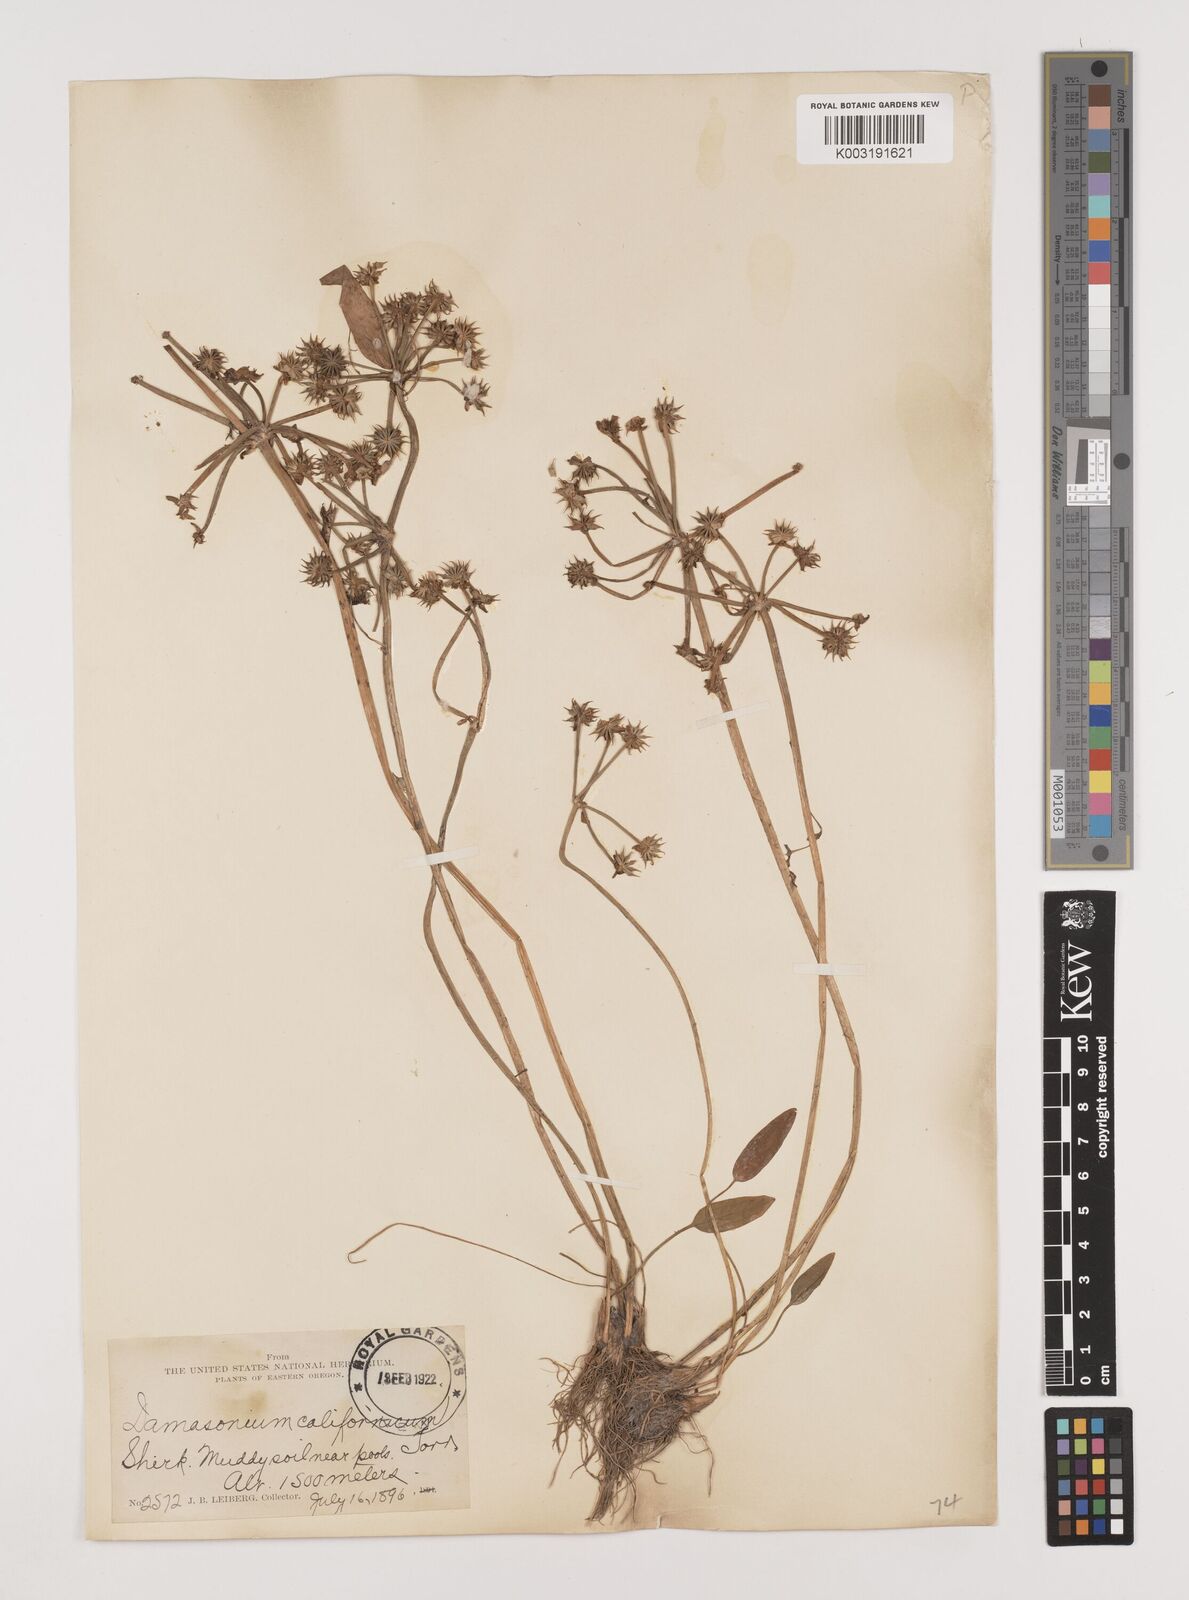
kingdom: Plantae
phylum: Tracheophyta
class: Liliopsida
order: Alismatales
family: Alismataceae
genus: Damasonium
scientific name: Damasonium
